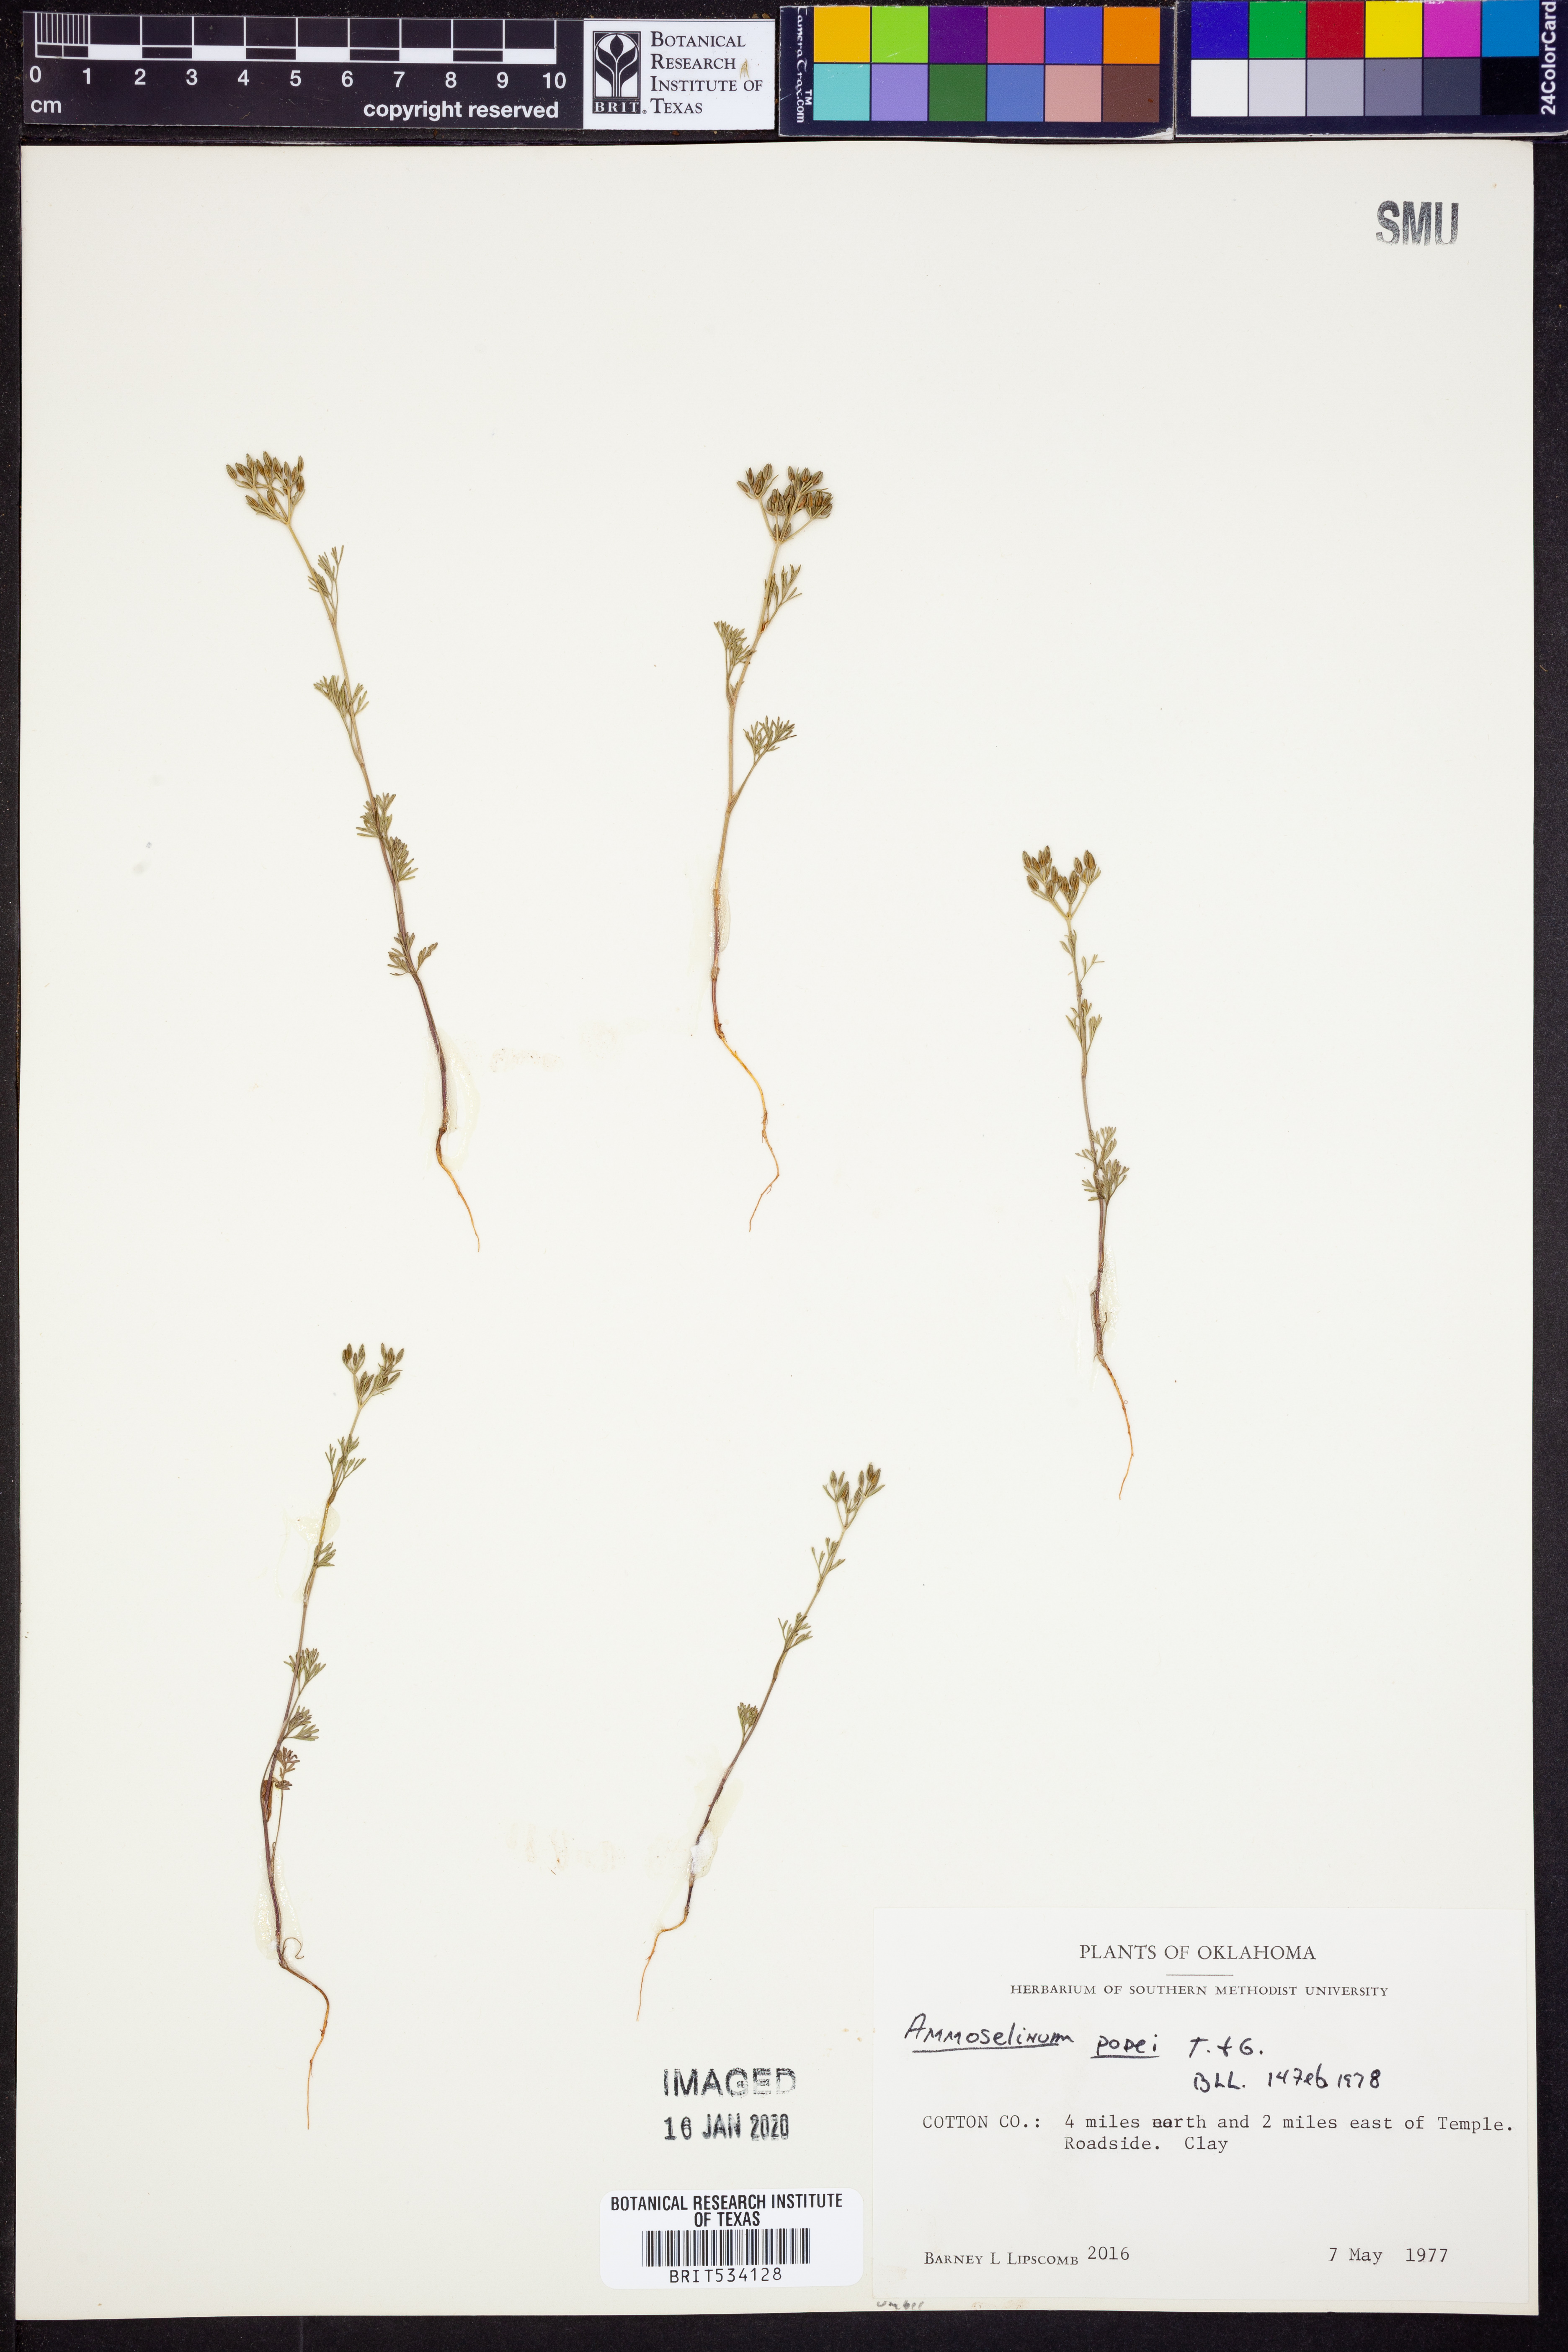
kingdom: Plantae
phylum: Tracheophyta
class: Magnoliopsida
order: Apiales
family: Apiaceae
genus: Ammoselinum
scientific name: Ammoselinum popei
